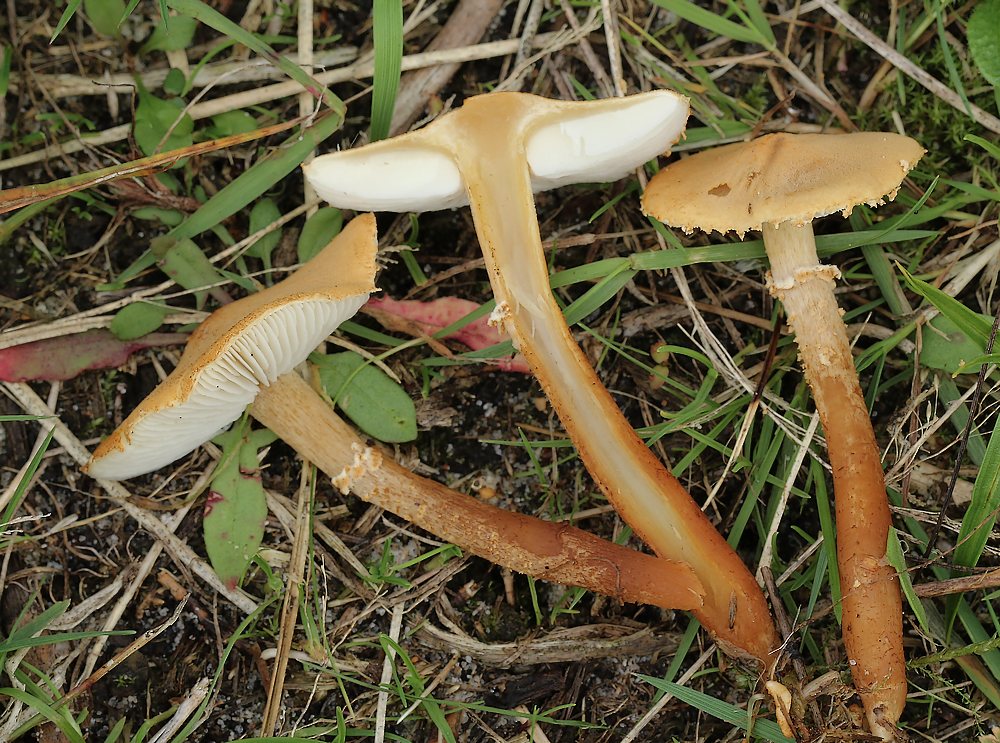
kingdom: Fungi
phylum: Basidiomycota
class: Agaricomycetes
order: Agaricales
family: Tricholomataceae
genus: Cystoderma
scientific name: Cystoderma amianthinum
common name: okkergul grynhat
